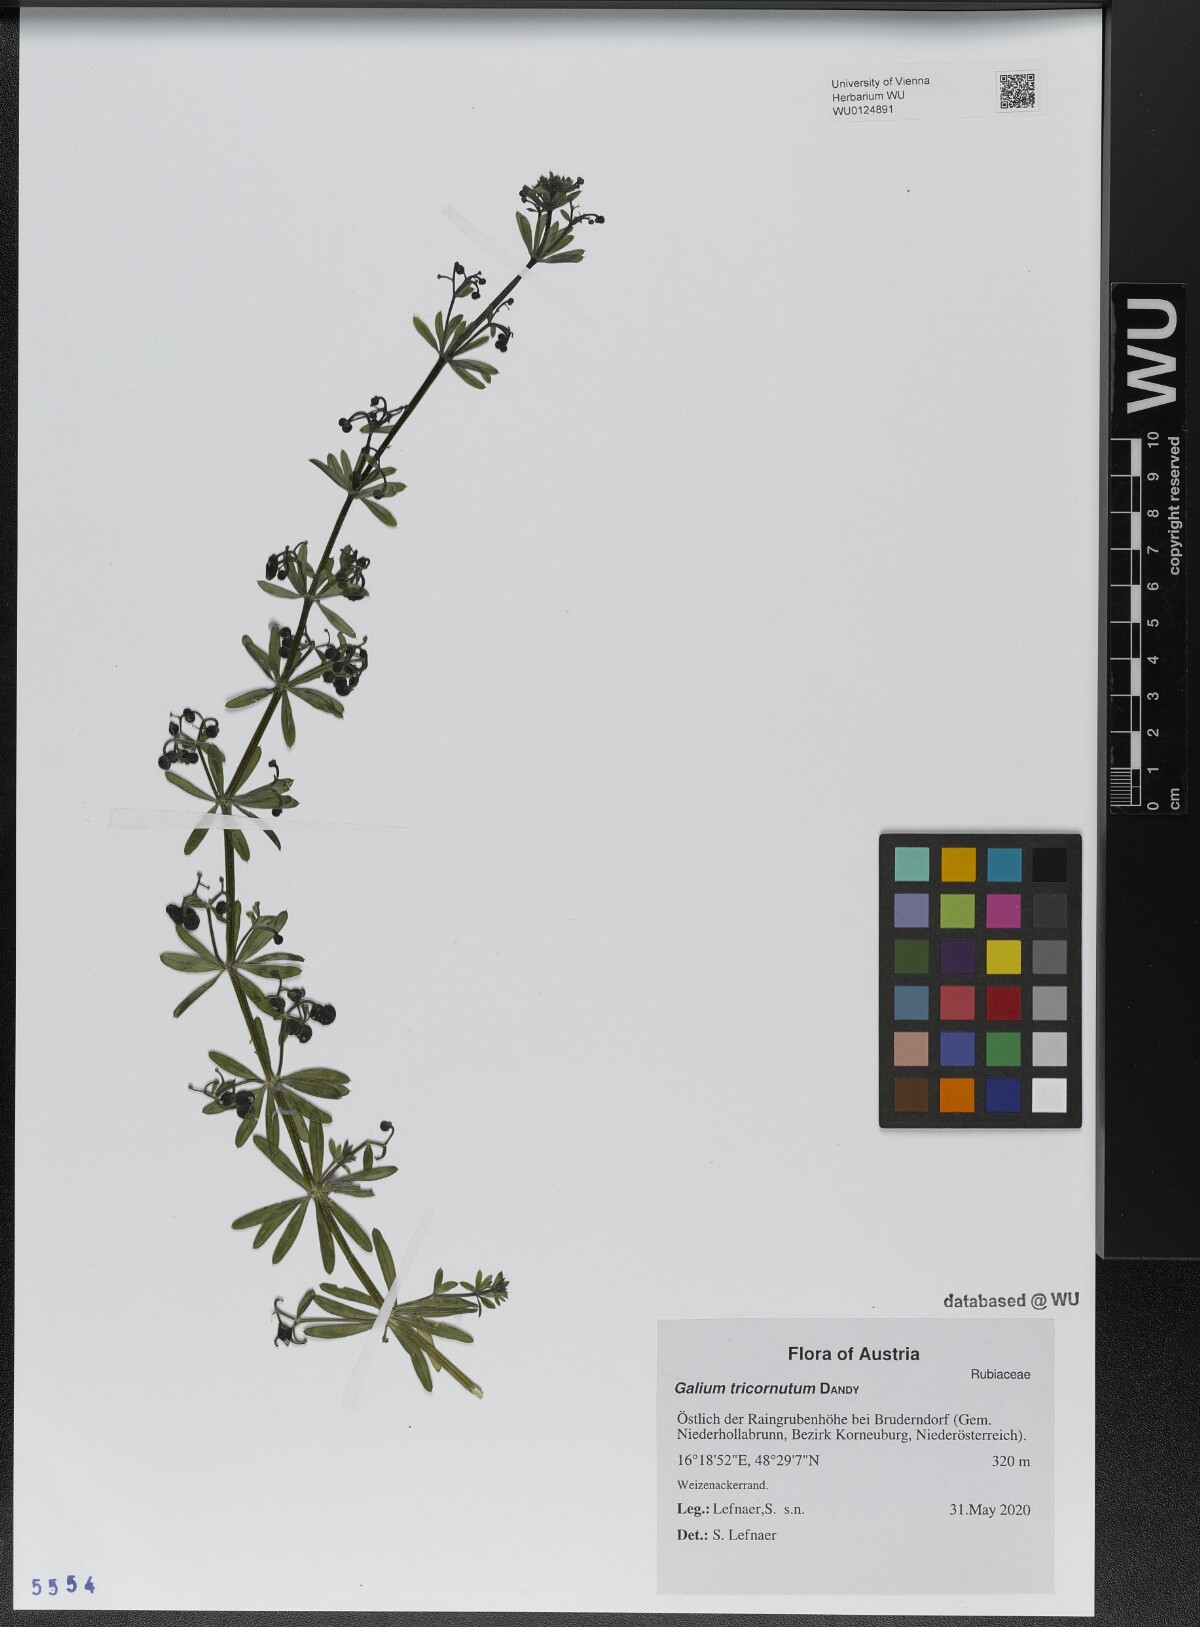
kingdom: Plantae
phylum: Tracheophyta
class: Magnoliopsida
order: Gentianales
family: Rubiaceae
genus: Galium
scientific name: Galium tricornutum
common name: Corn cleavers
